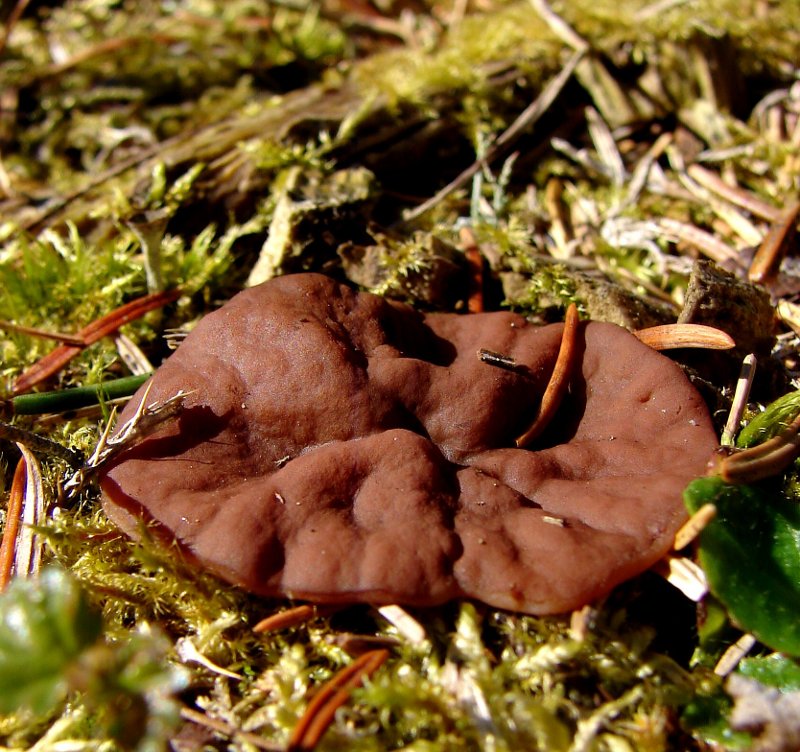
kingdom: Fungi
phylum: Ascomycota
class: Pezizomycetes
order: Pezizales
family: Discinaceae
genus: Discina
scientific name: Discina ancilis
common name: udbredt stenmorkel
